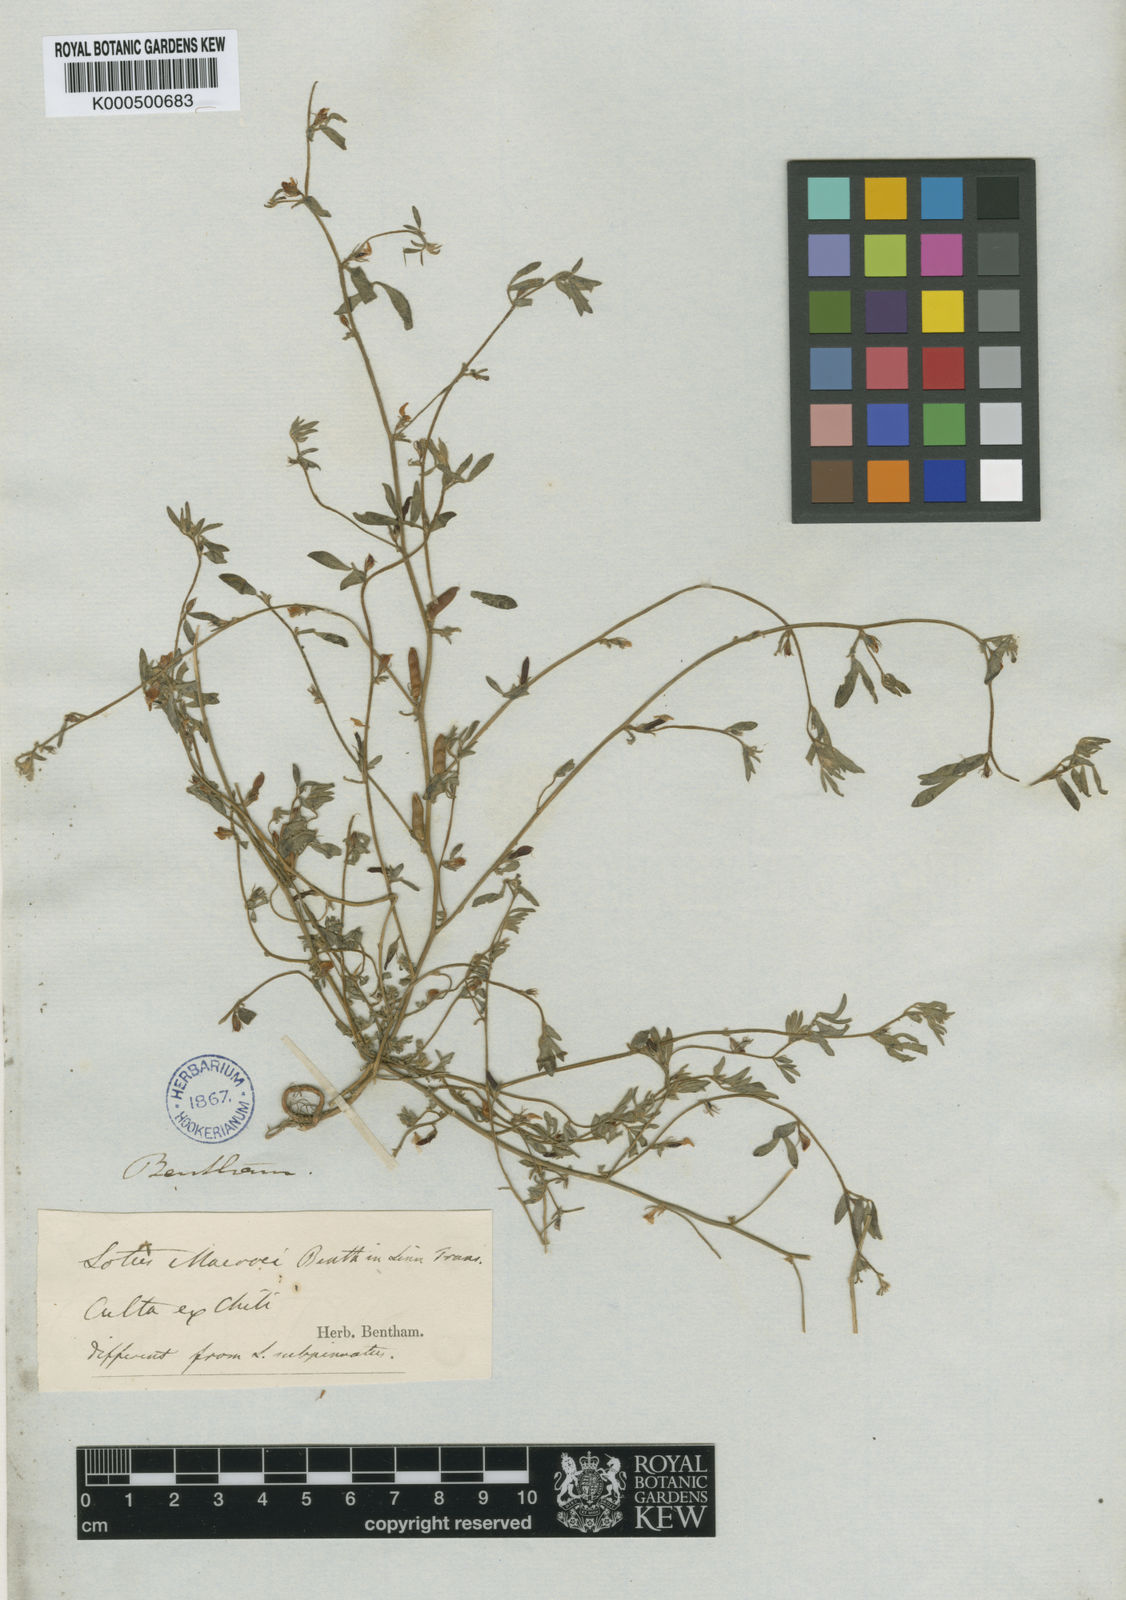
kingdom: Plantae
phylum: Tracheophyta
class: Magnoliopsida
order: Fabales
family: Fabaceae
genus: Acmispon
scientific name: Acmispon subpinnatus
